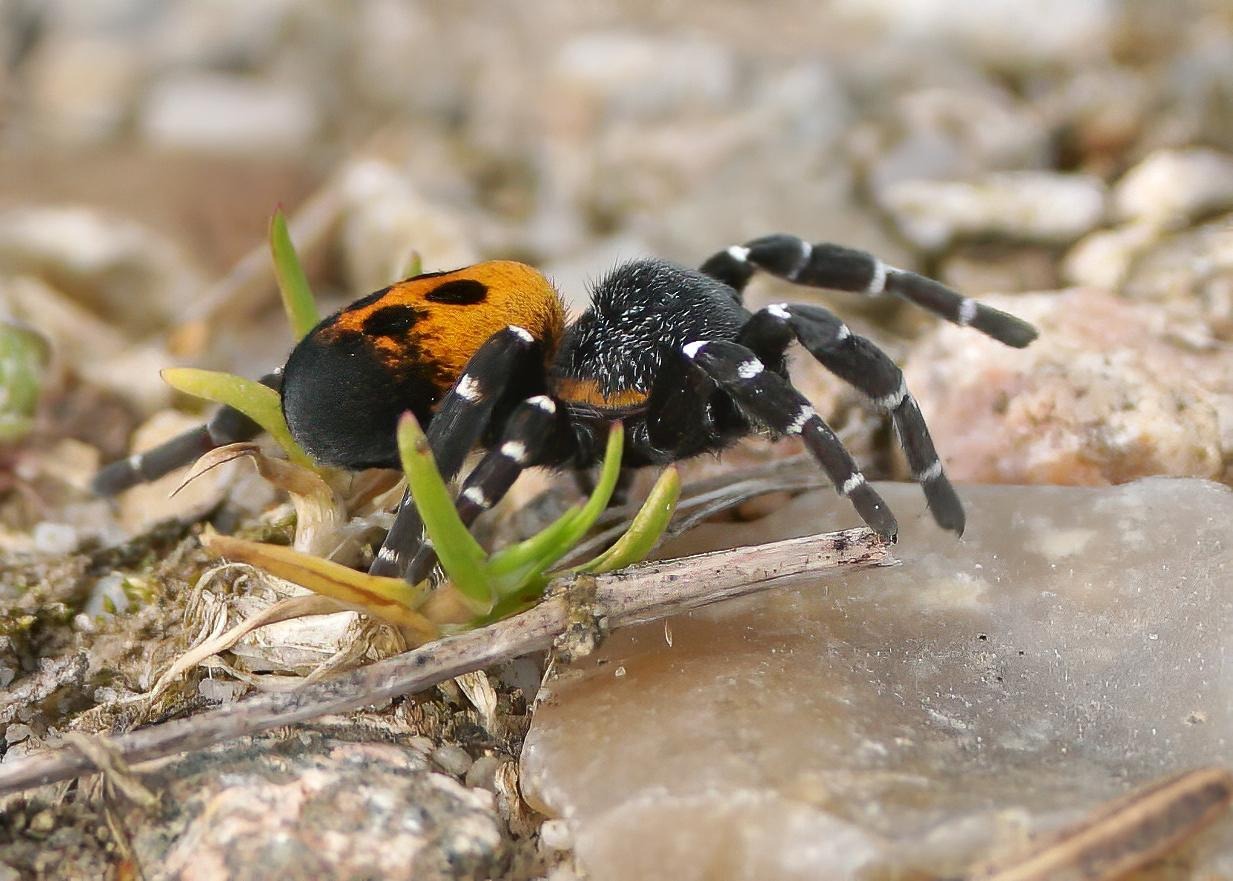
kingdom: Animalia
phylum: Arthropoda
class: Arachnida
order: Araneae
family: Eresidae
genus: Eresus
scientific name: Eresus sandaliatus
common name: Mariehøneedderkop
